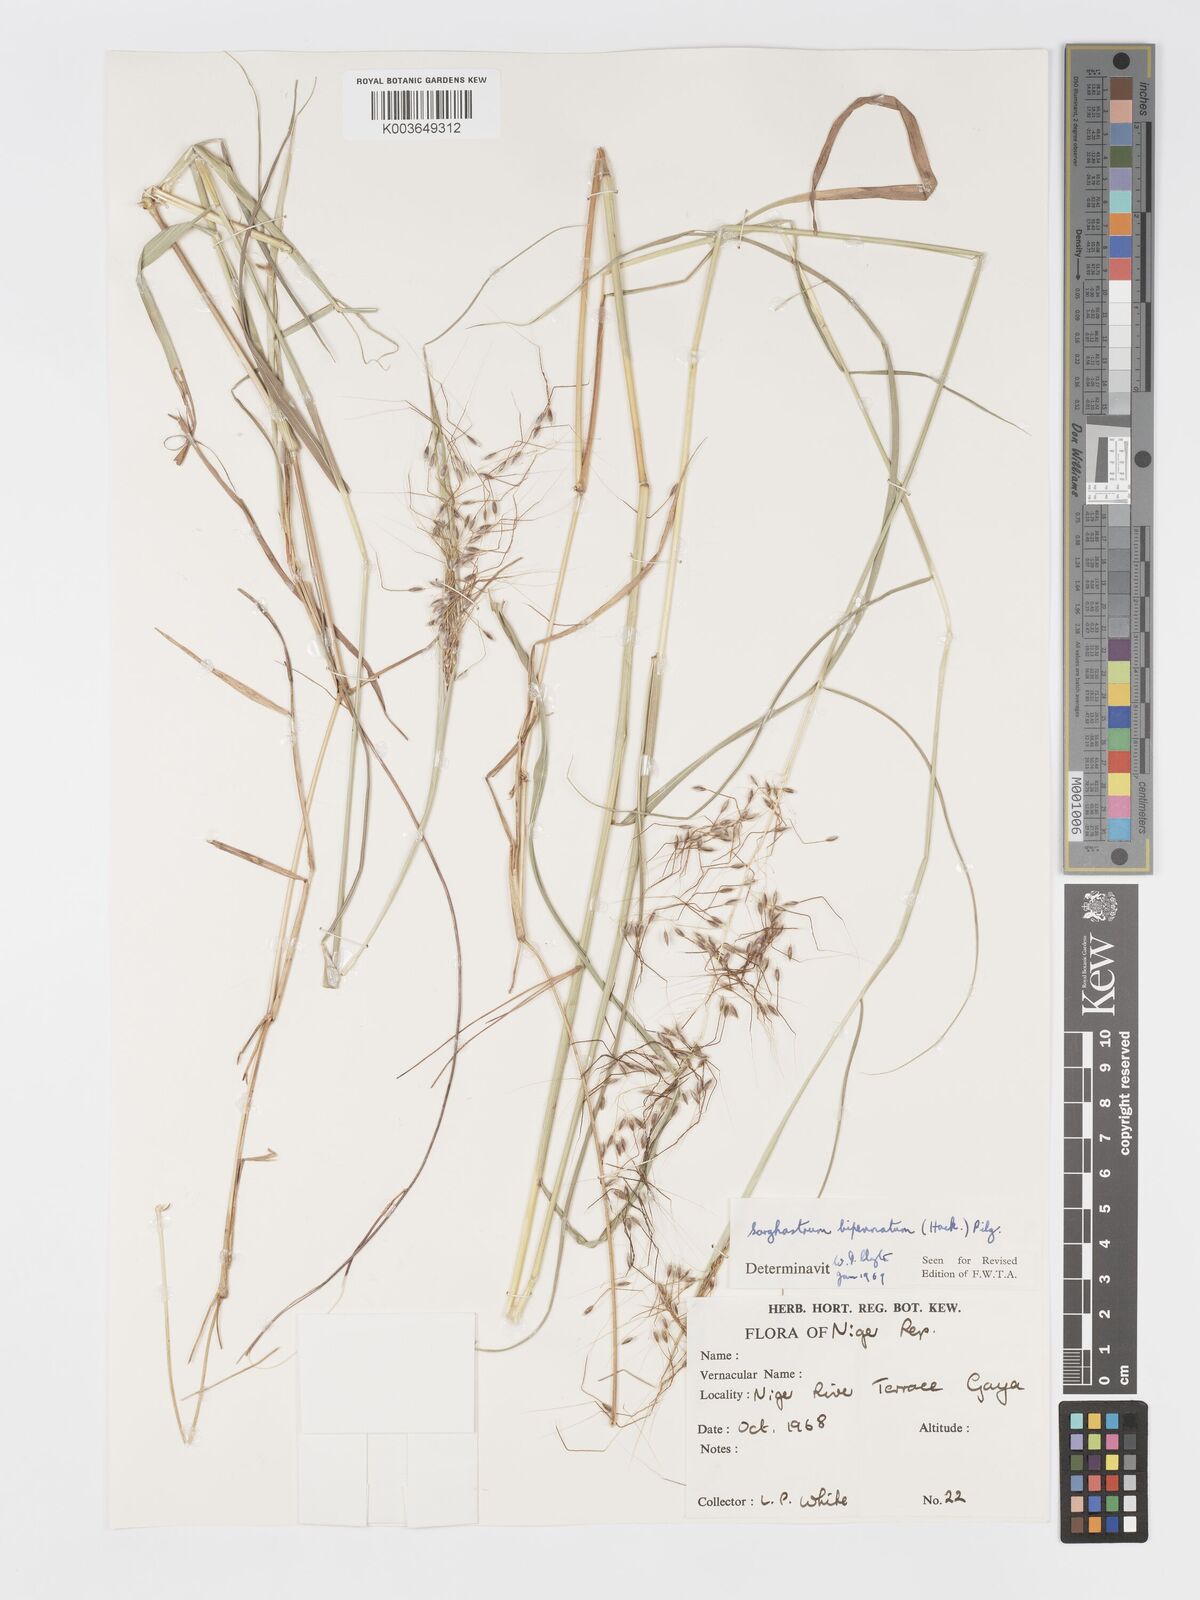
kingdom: Plantae
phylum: Tracheophyta
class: Liliopsida
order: Poales
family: Poaceae
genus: Sorghastrum
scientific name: Sorghastrum incompletum
